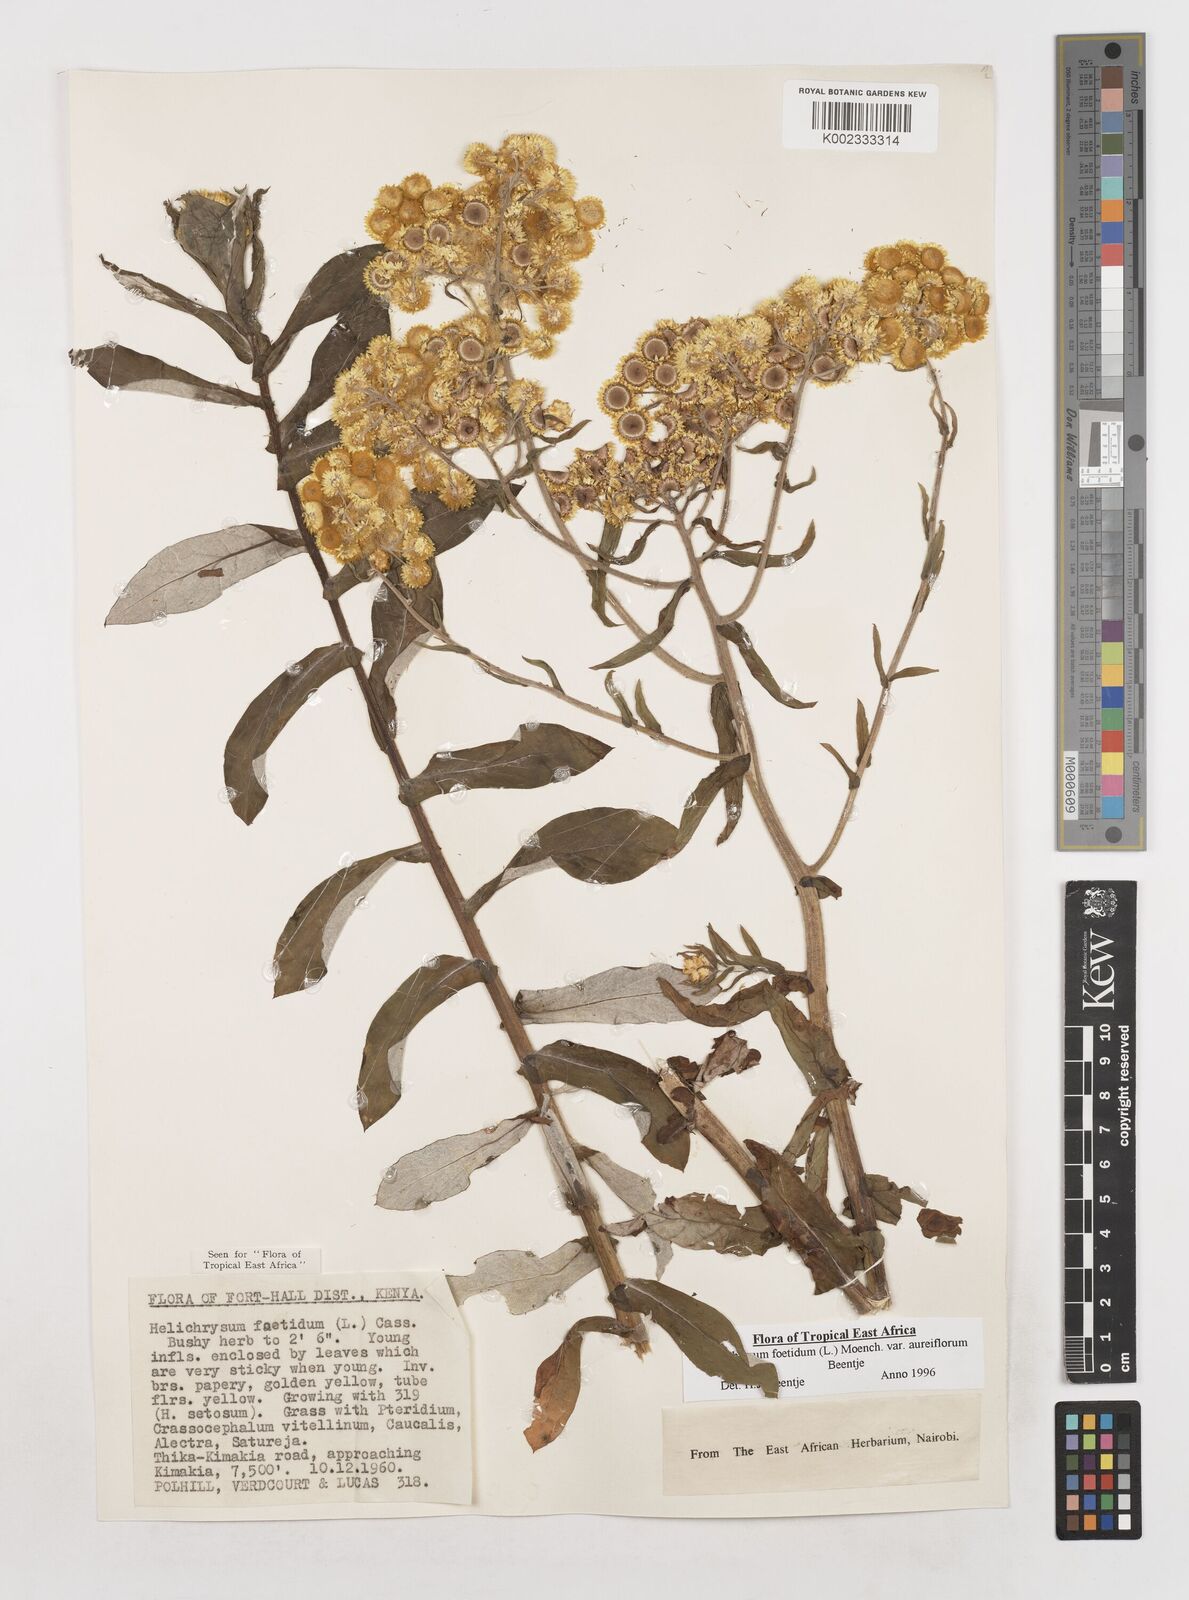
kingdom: Plantae
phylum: Tracheophyta
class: Magnoliopsida
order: Asterales
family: Asteraceae
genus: Helichrysum
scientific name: Helichrysum foetidum
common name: Stinking everlasting
